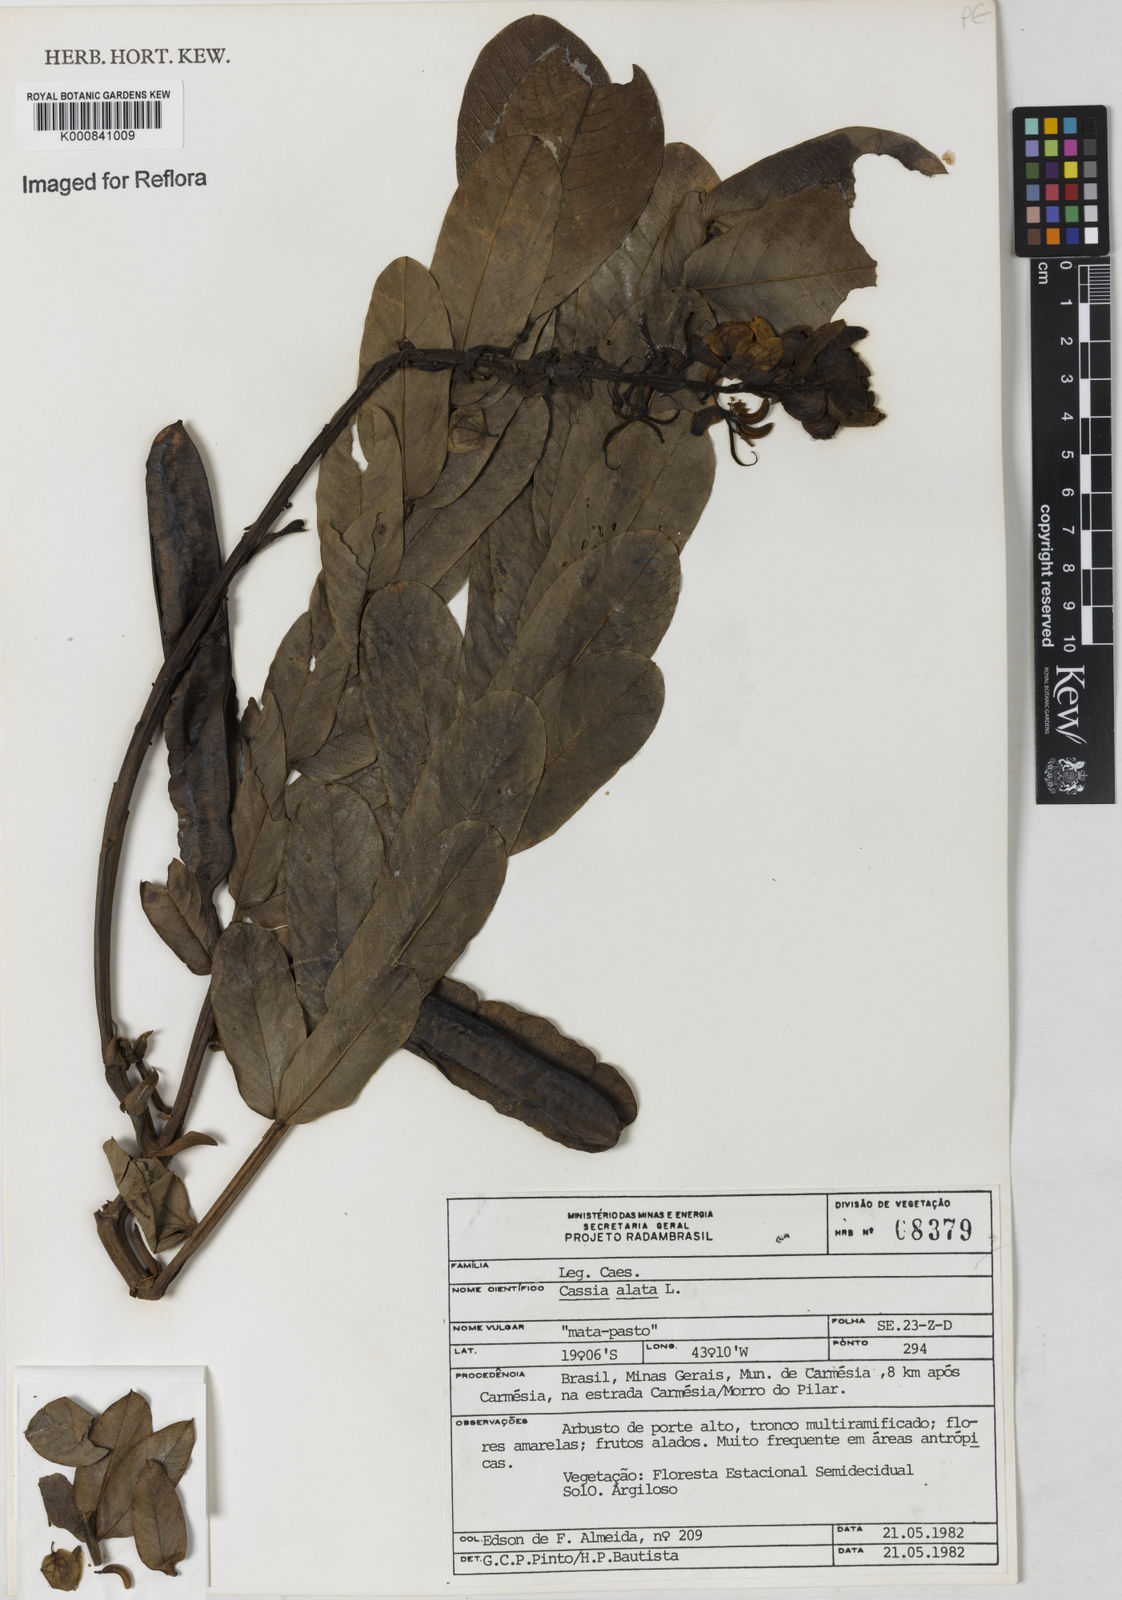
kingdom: Plantae
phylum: Tracheophyta
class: Magnoliopsida
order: Fabales
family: Fabaceae
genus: Senna
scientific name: Senna alata
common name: Emperor's candlesticks
